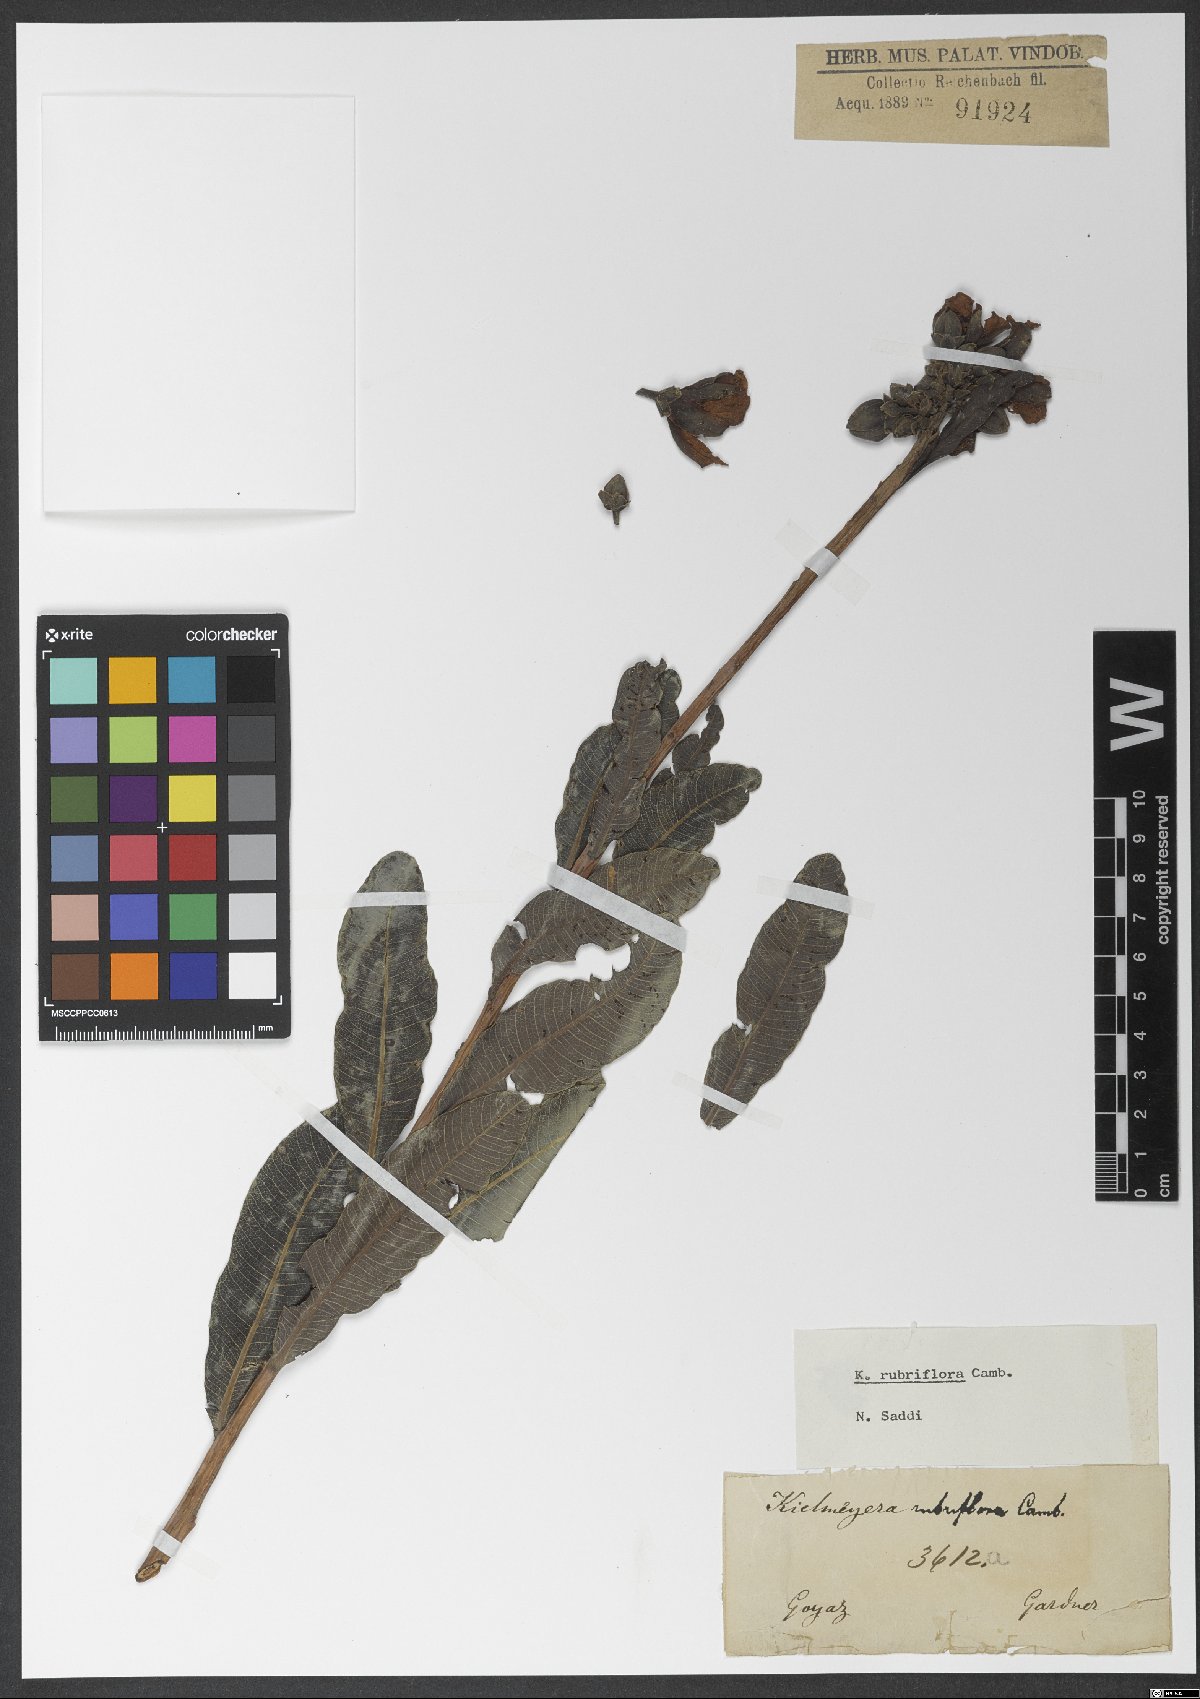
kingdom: Plantae
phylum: Tracheophyta
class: Magnoliopsida
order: Malpighiales
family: Calophyllaceae
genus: Kielmeyera
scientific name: Kielmeyera rubriflora
